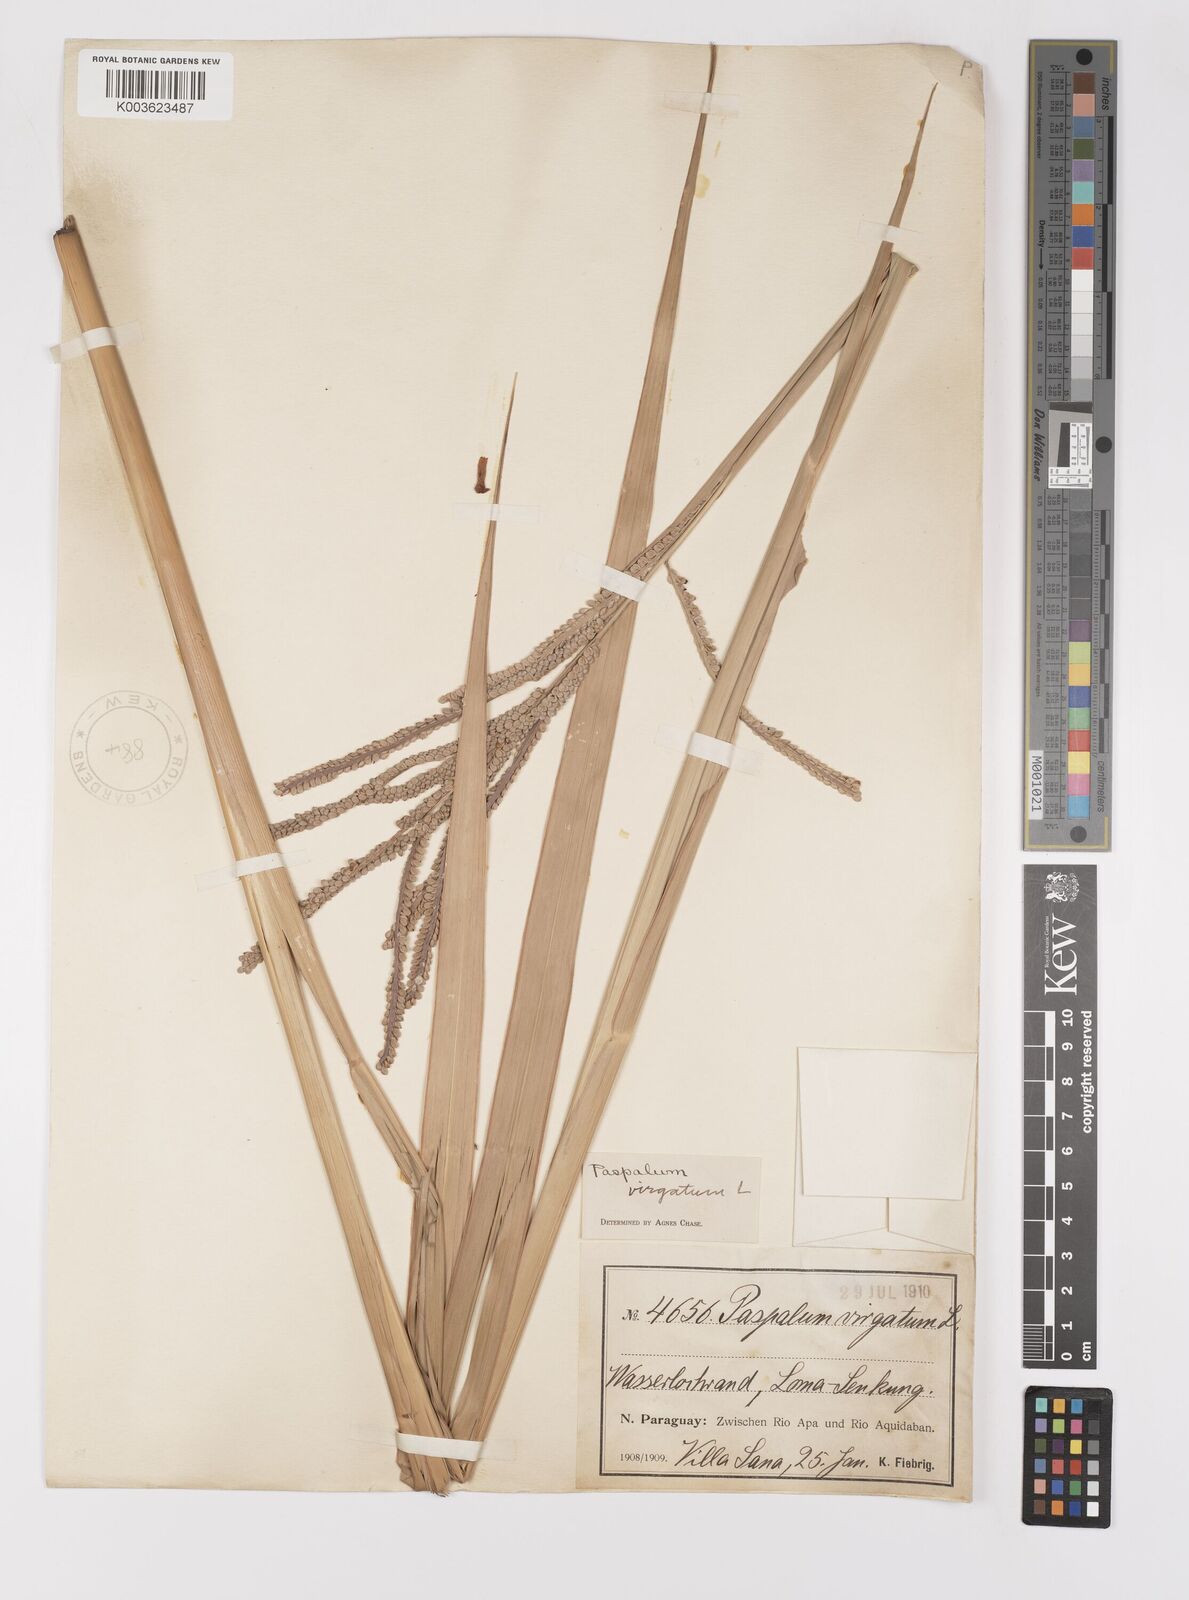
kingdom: Plantae
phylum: Tracheophyta
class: Liliopsida
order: Poales
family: Poaceae
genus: Paspalum
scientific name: Paspalum virgatum
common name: Talquezal
